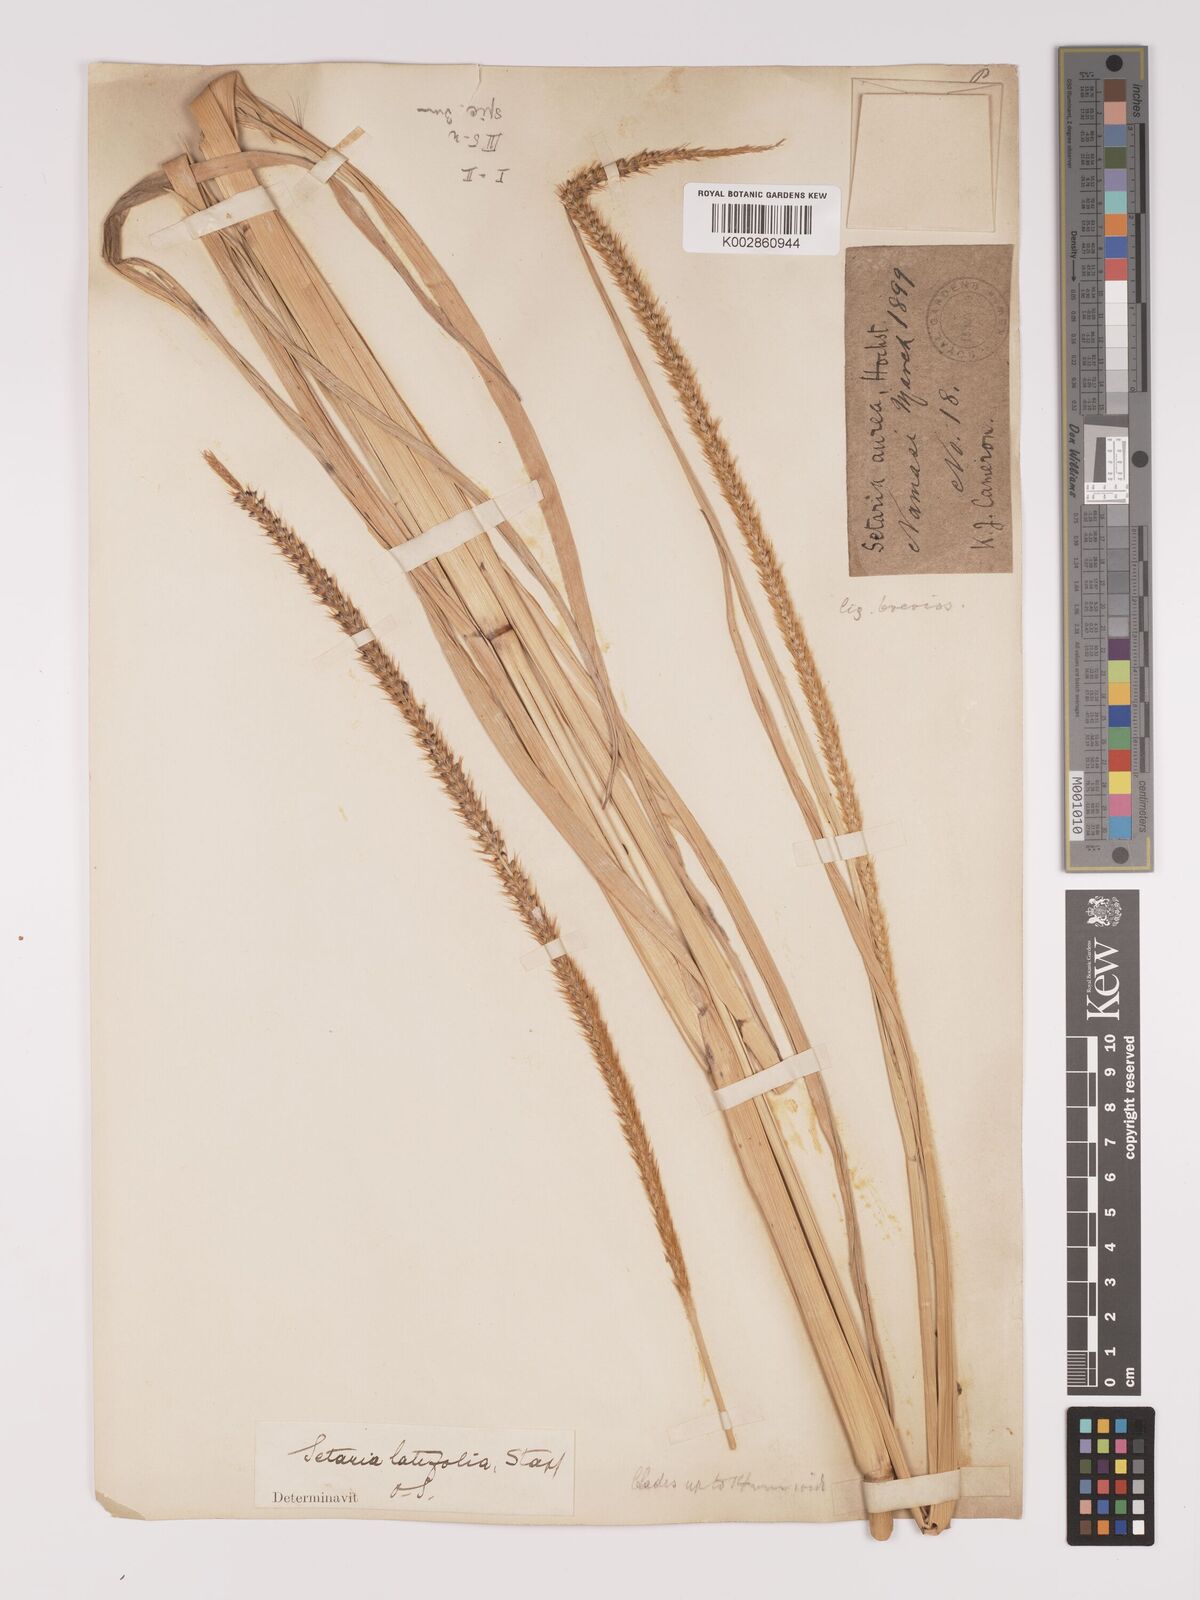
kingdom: Plantae
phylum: Tracheophyta
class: Liliopsida
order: Poales
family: Poaceae
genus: Setaria
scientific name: Setaria sphacelata
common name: African bristlegrass
